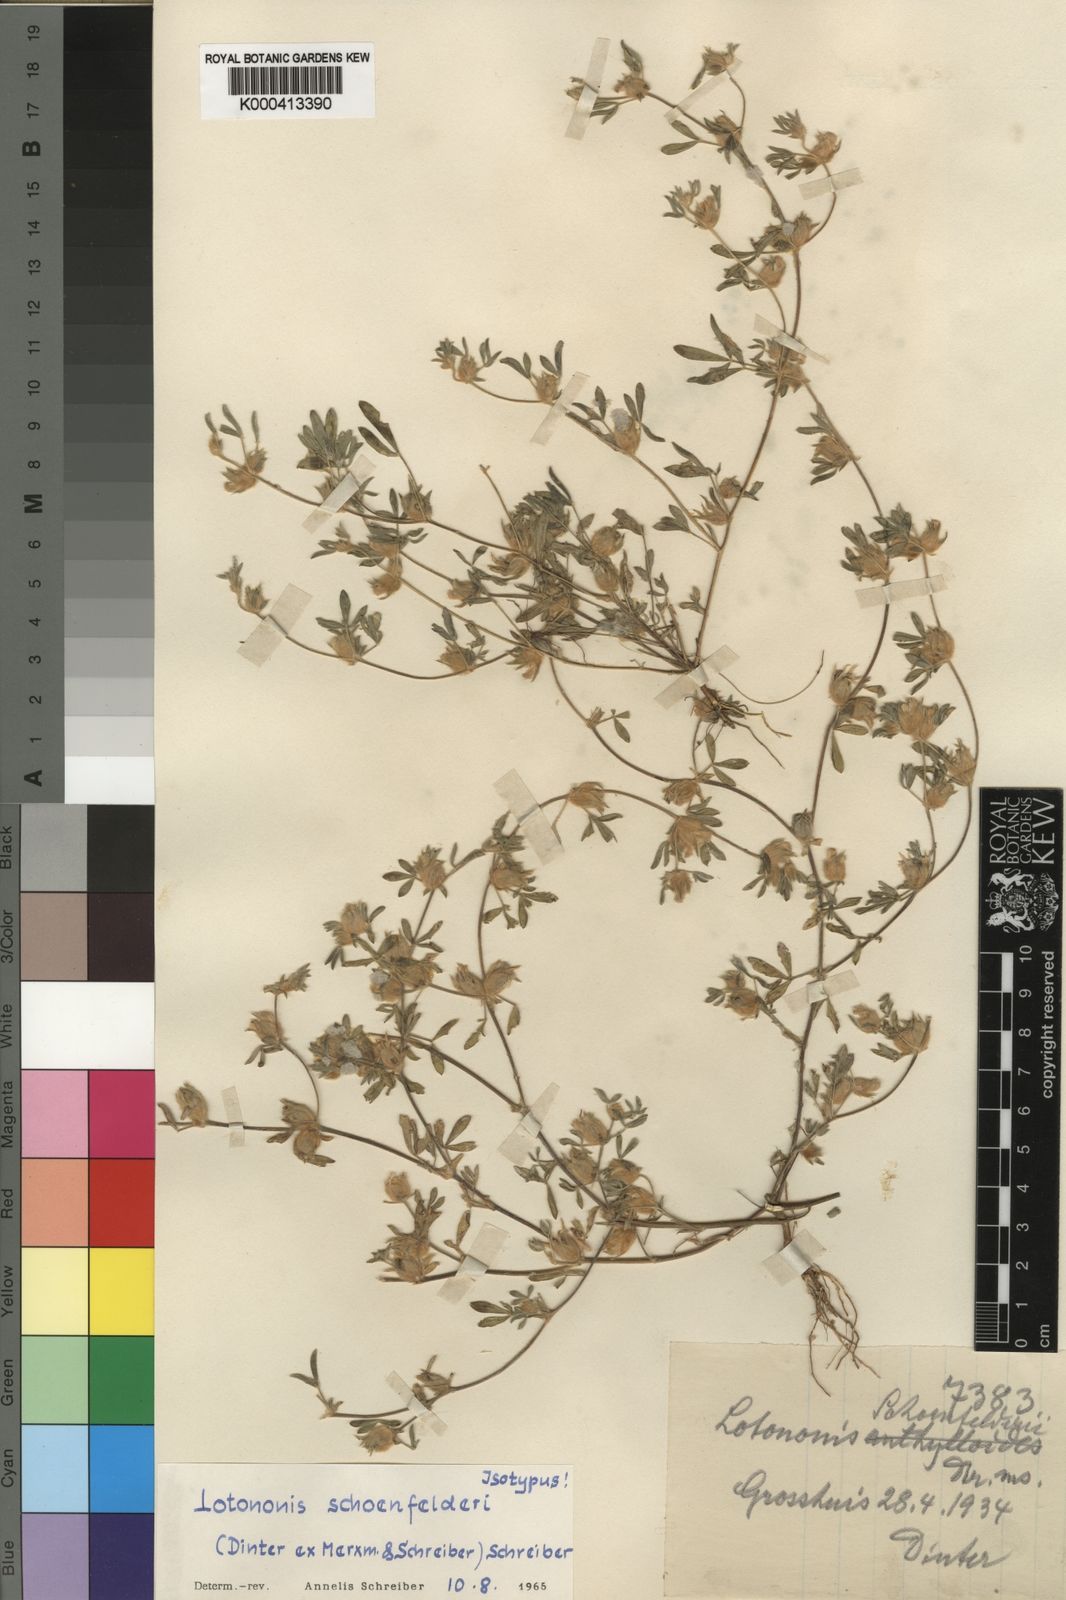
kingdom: Plantae
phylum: Tracheophyta
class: Magnoliopsida
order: Fabales
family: Fabaceae
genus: Leobordea
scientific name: Leobordea schoenfelderi
